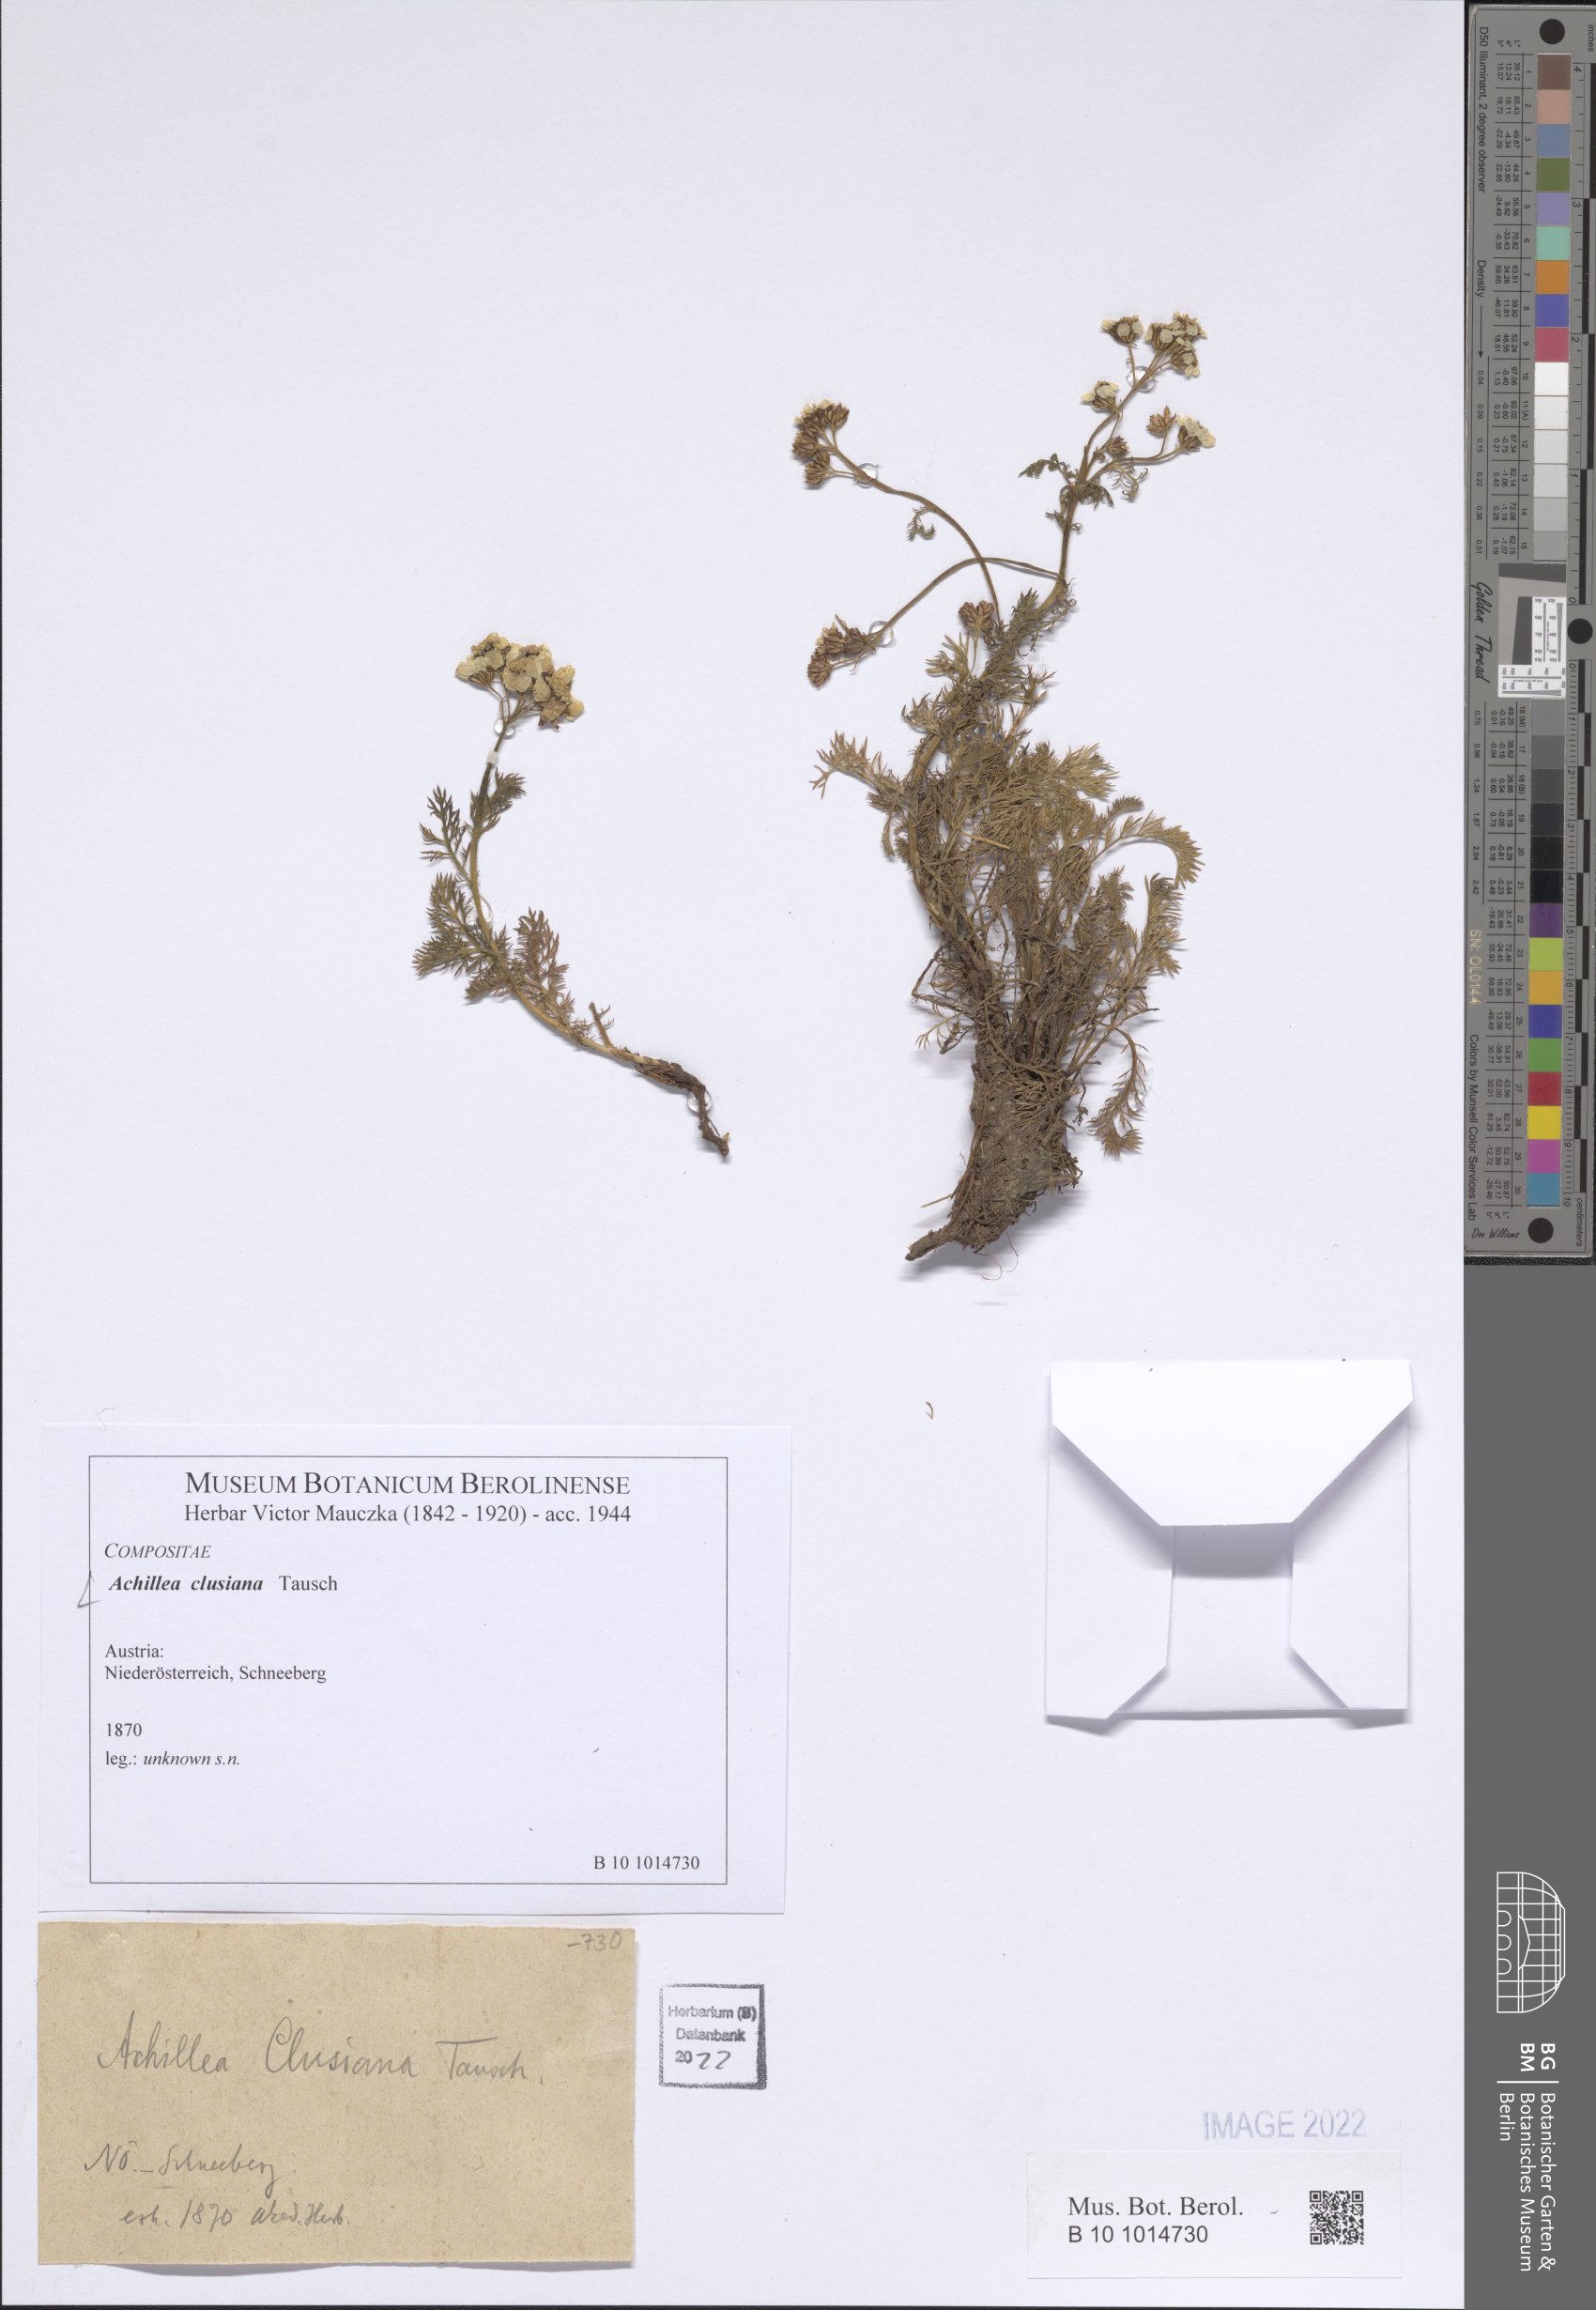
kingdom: Plantae
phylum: Tracheophyta
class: Magnoliopsida
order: Asterales
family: Asteraceae
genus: Achillea
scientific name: Achillea clusiana
